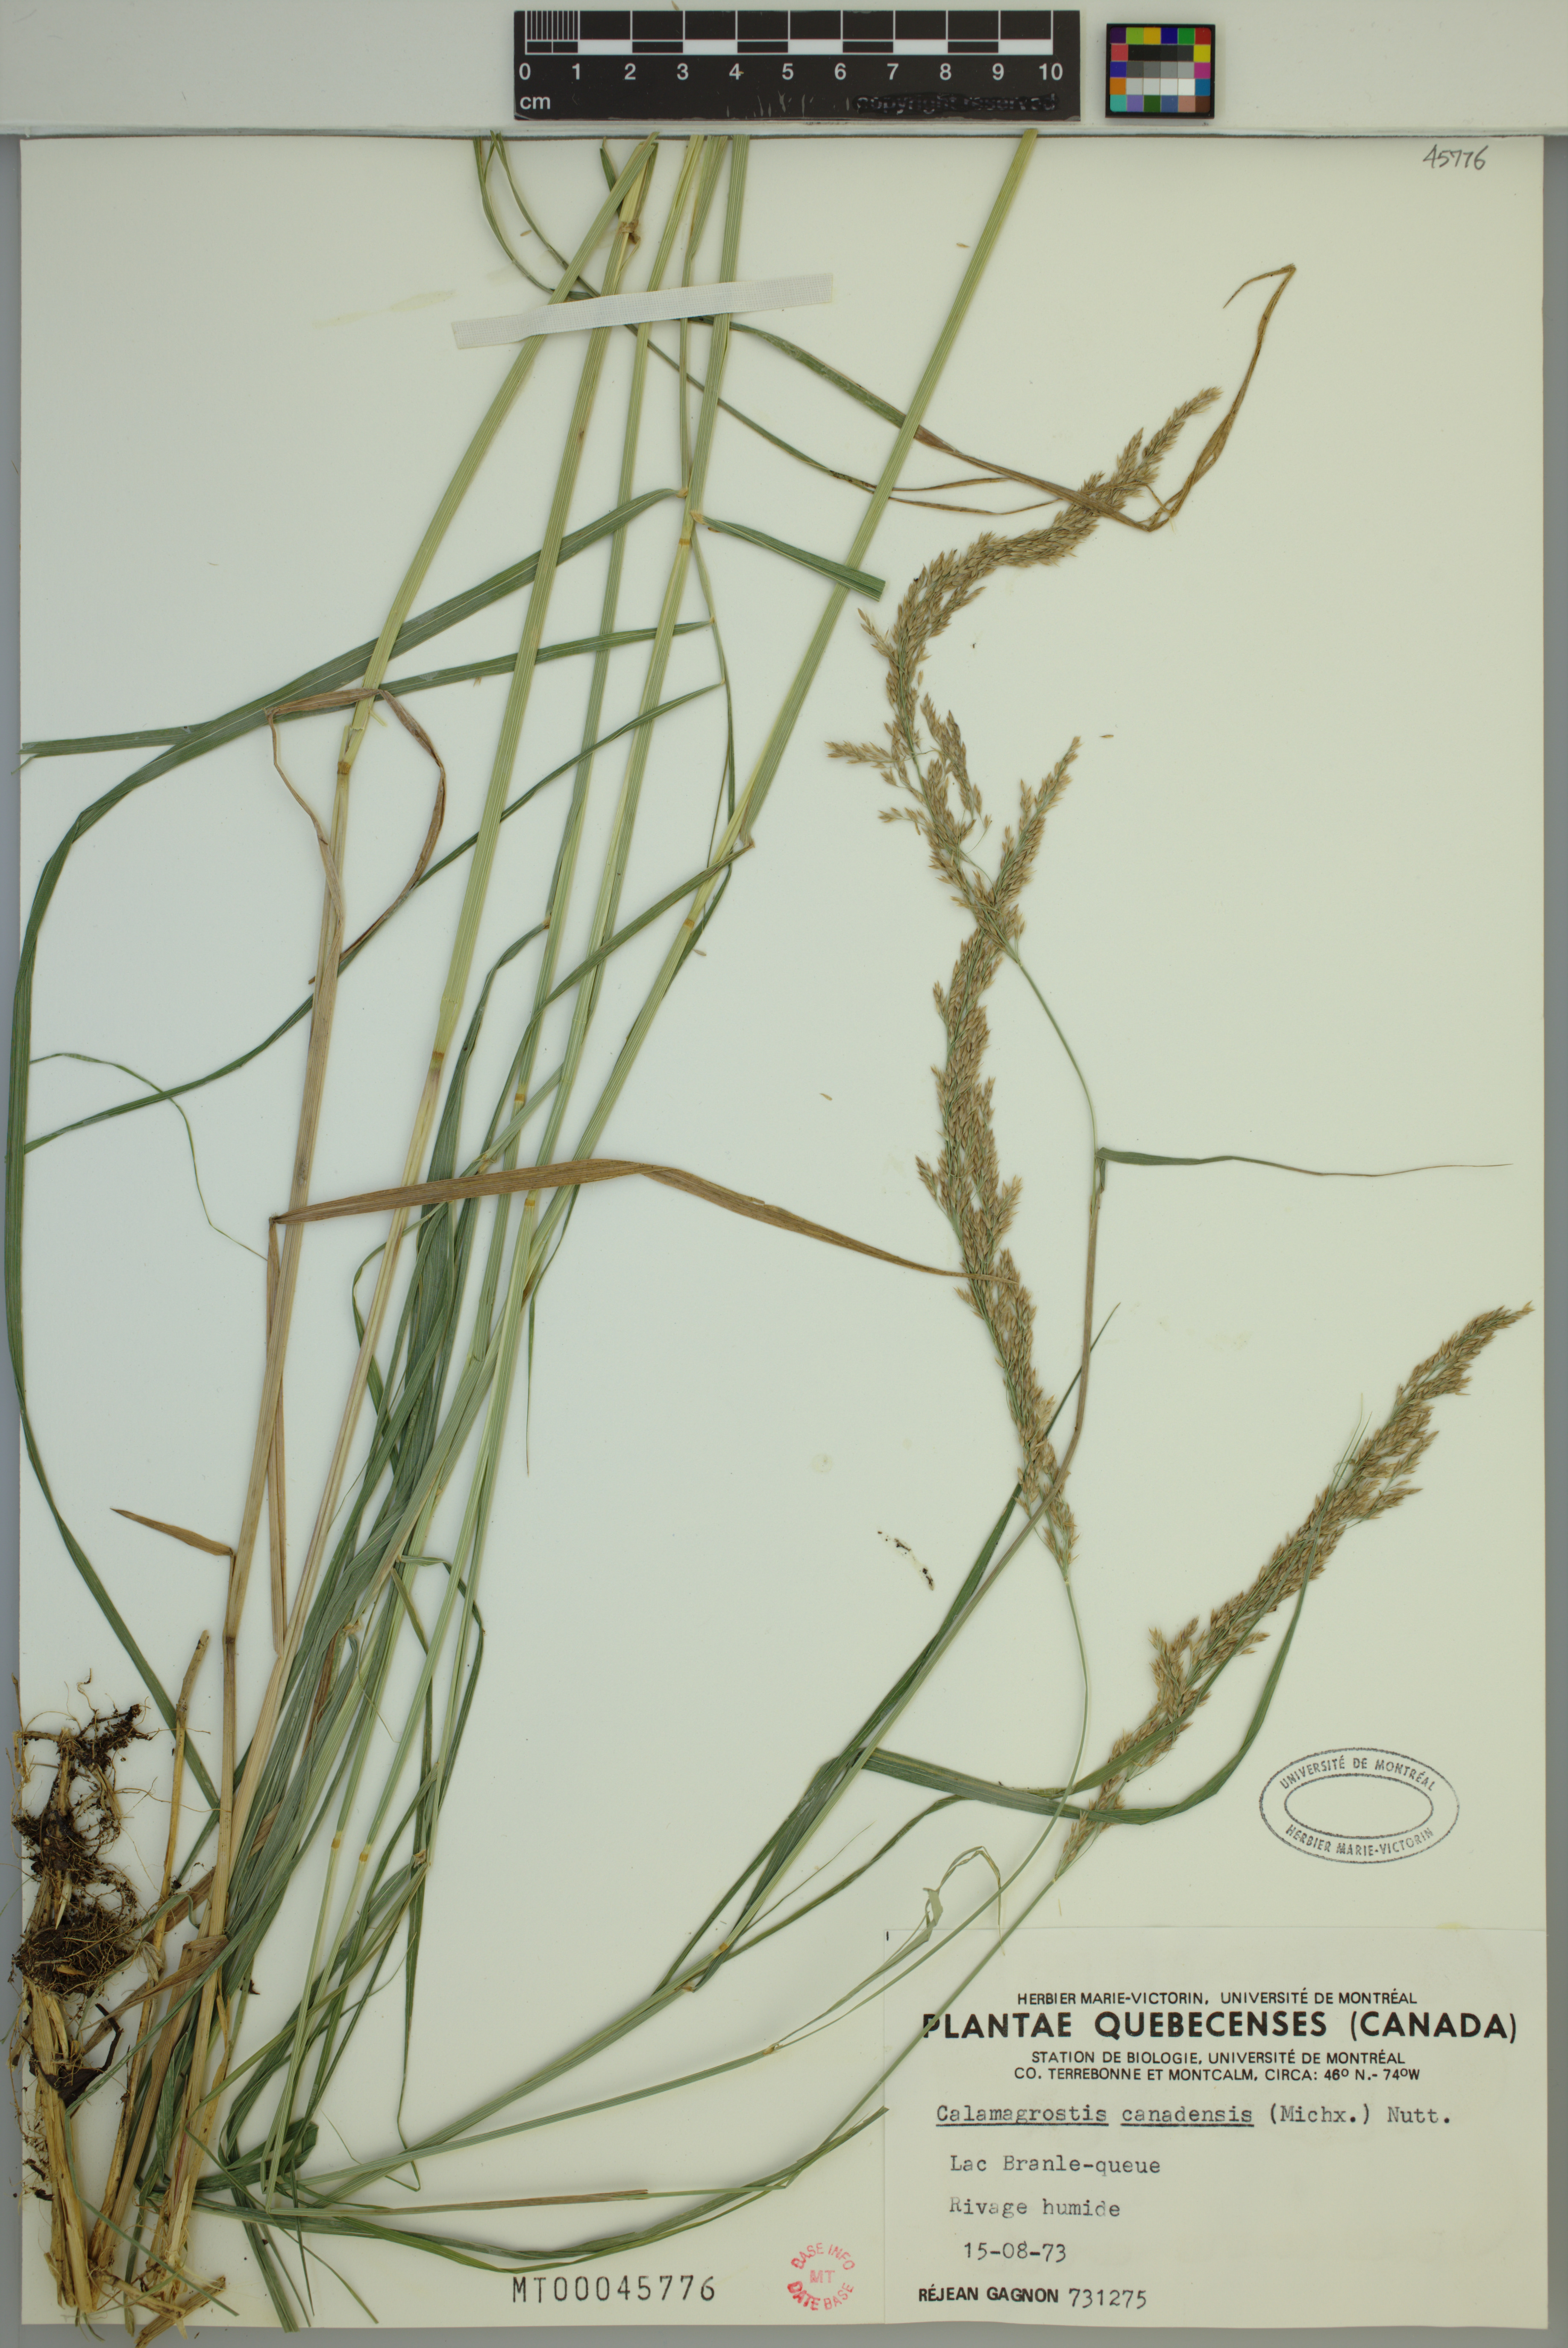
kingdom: Plantae
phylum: Tracheophyta
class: Liliopsida
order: Poales
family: Poaceae
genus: Calamagrostis
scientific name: Calamagrostis canadensis
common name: Canada bluejoint
